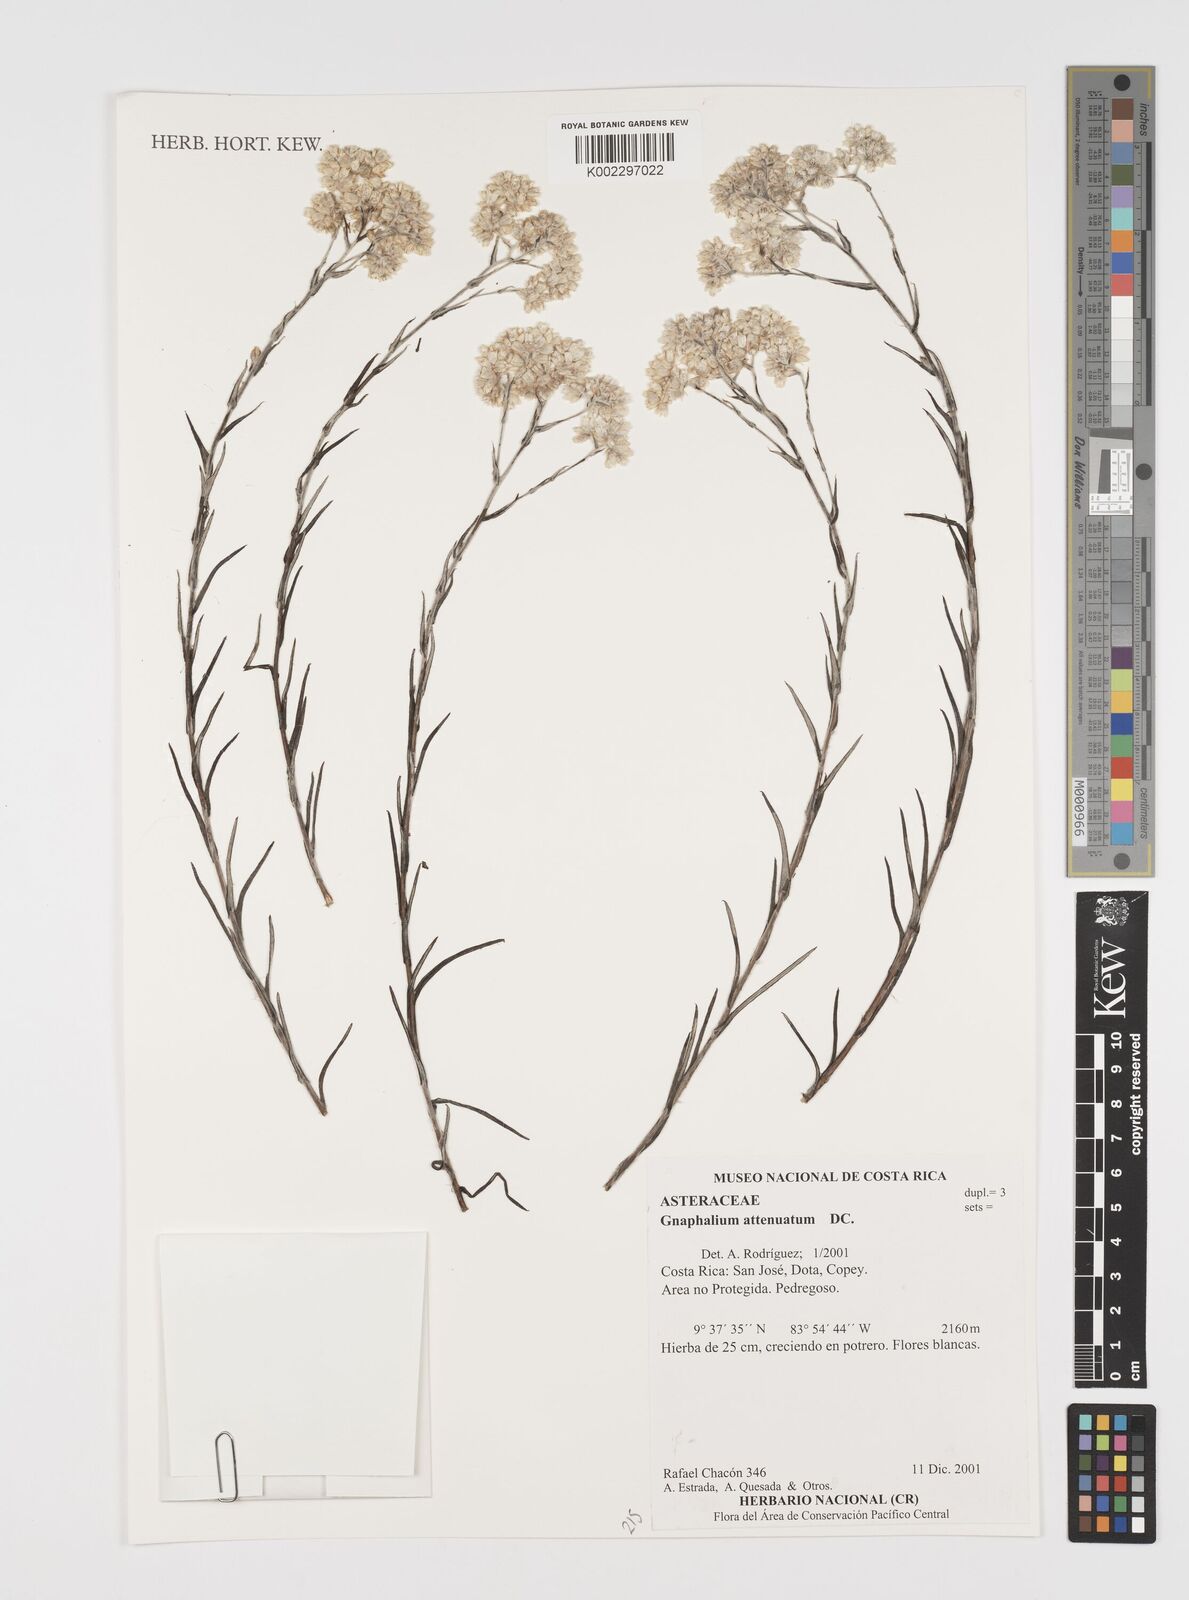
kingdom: Plantae
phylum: Tracheophyta
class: Magnoliopsida
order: Asterales
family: Asteraceae
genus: Pseudognaphalium
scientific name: Pseudognaphalium attenuatum
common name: Tapered cudweed
